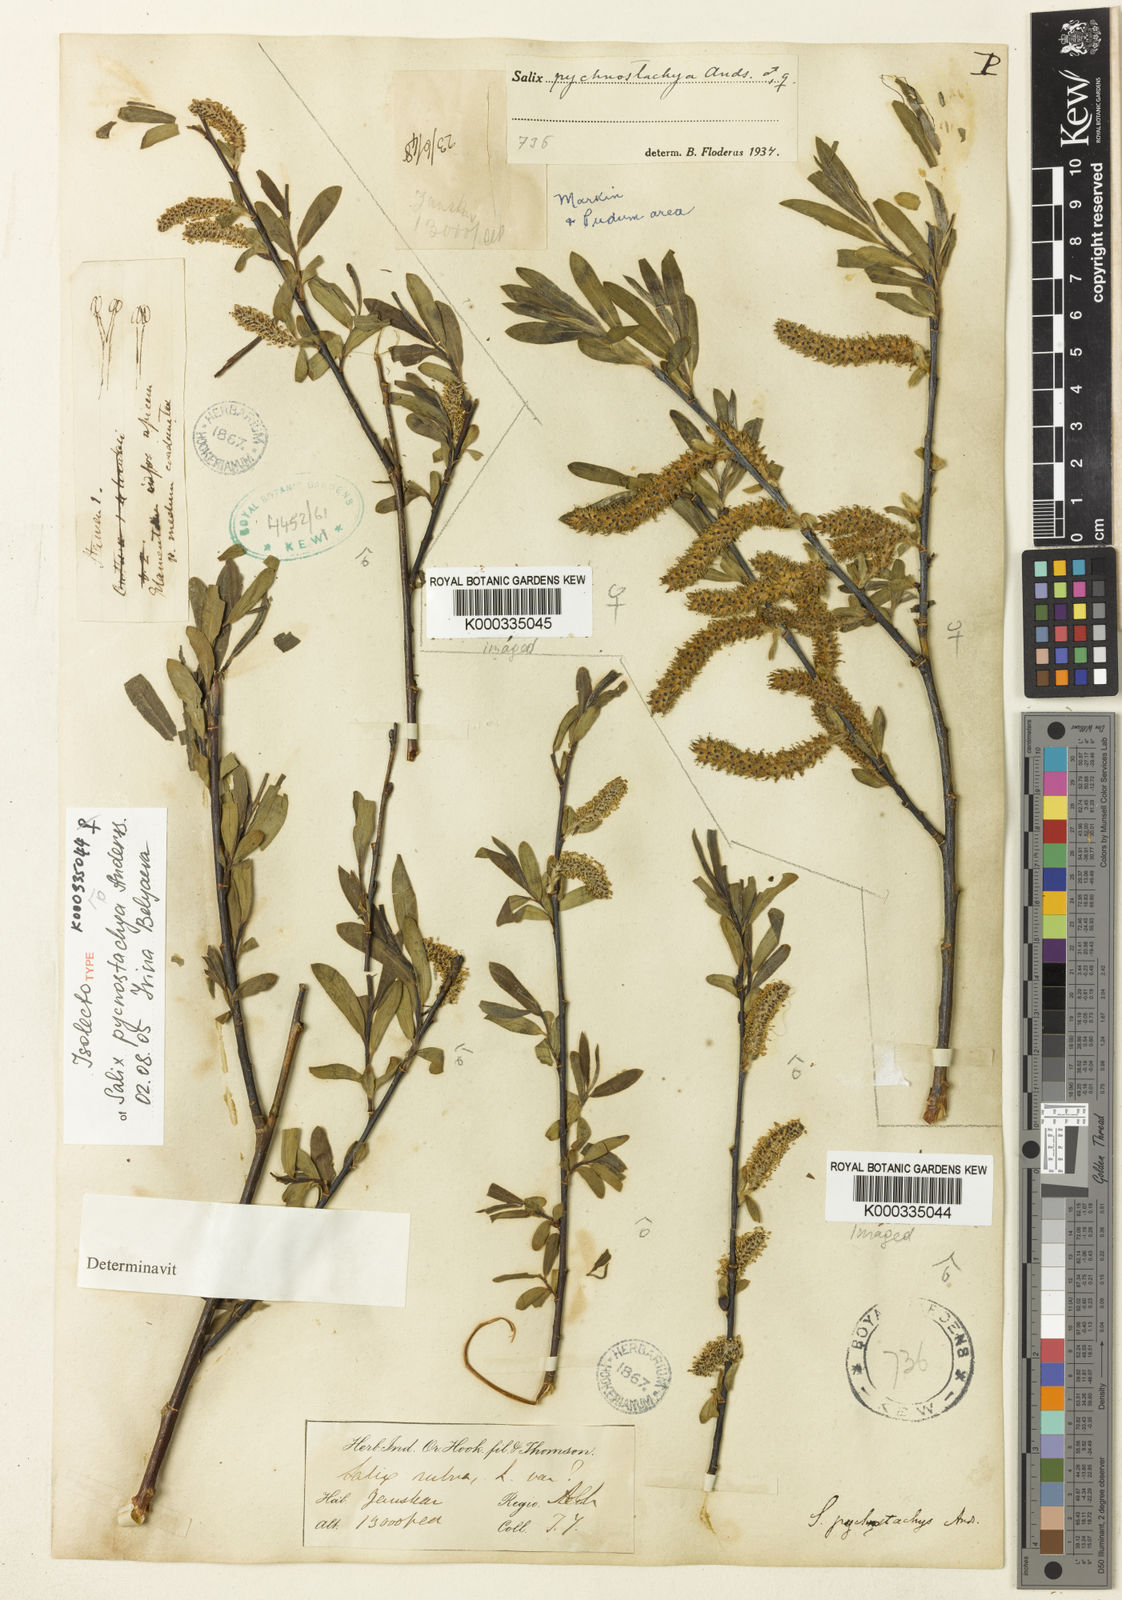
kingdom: Plantae
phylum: Tracheophyta
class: Magnoliopsida
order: Malpighiales
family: Salicaceae
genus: Salix
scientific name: Salix pycnostachya
